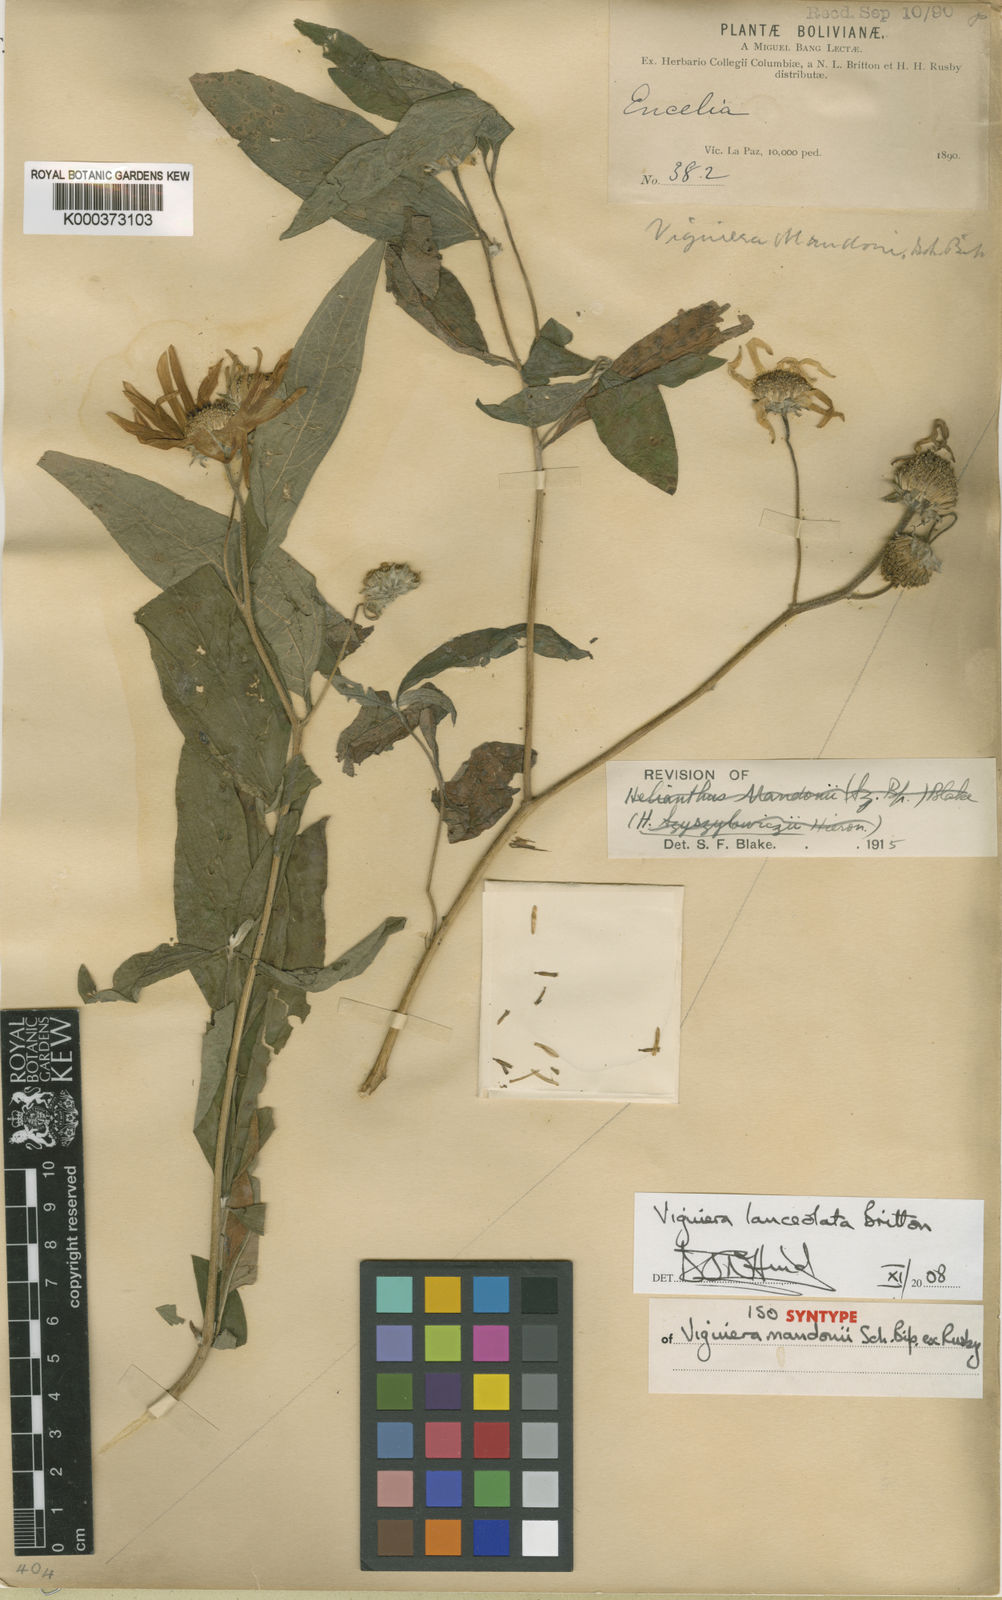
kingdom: Plantae
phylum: Tracheophyta
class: Magnoliopsida
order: Asterales
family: Asteraceae
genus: Aldama
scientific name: Aldama lanceolata
